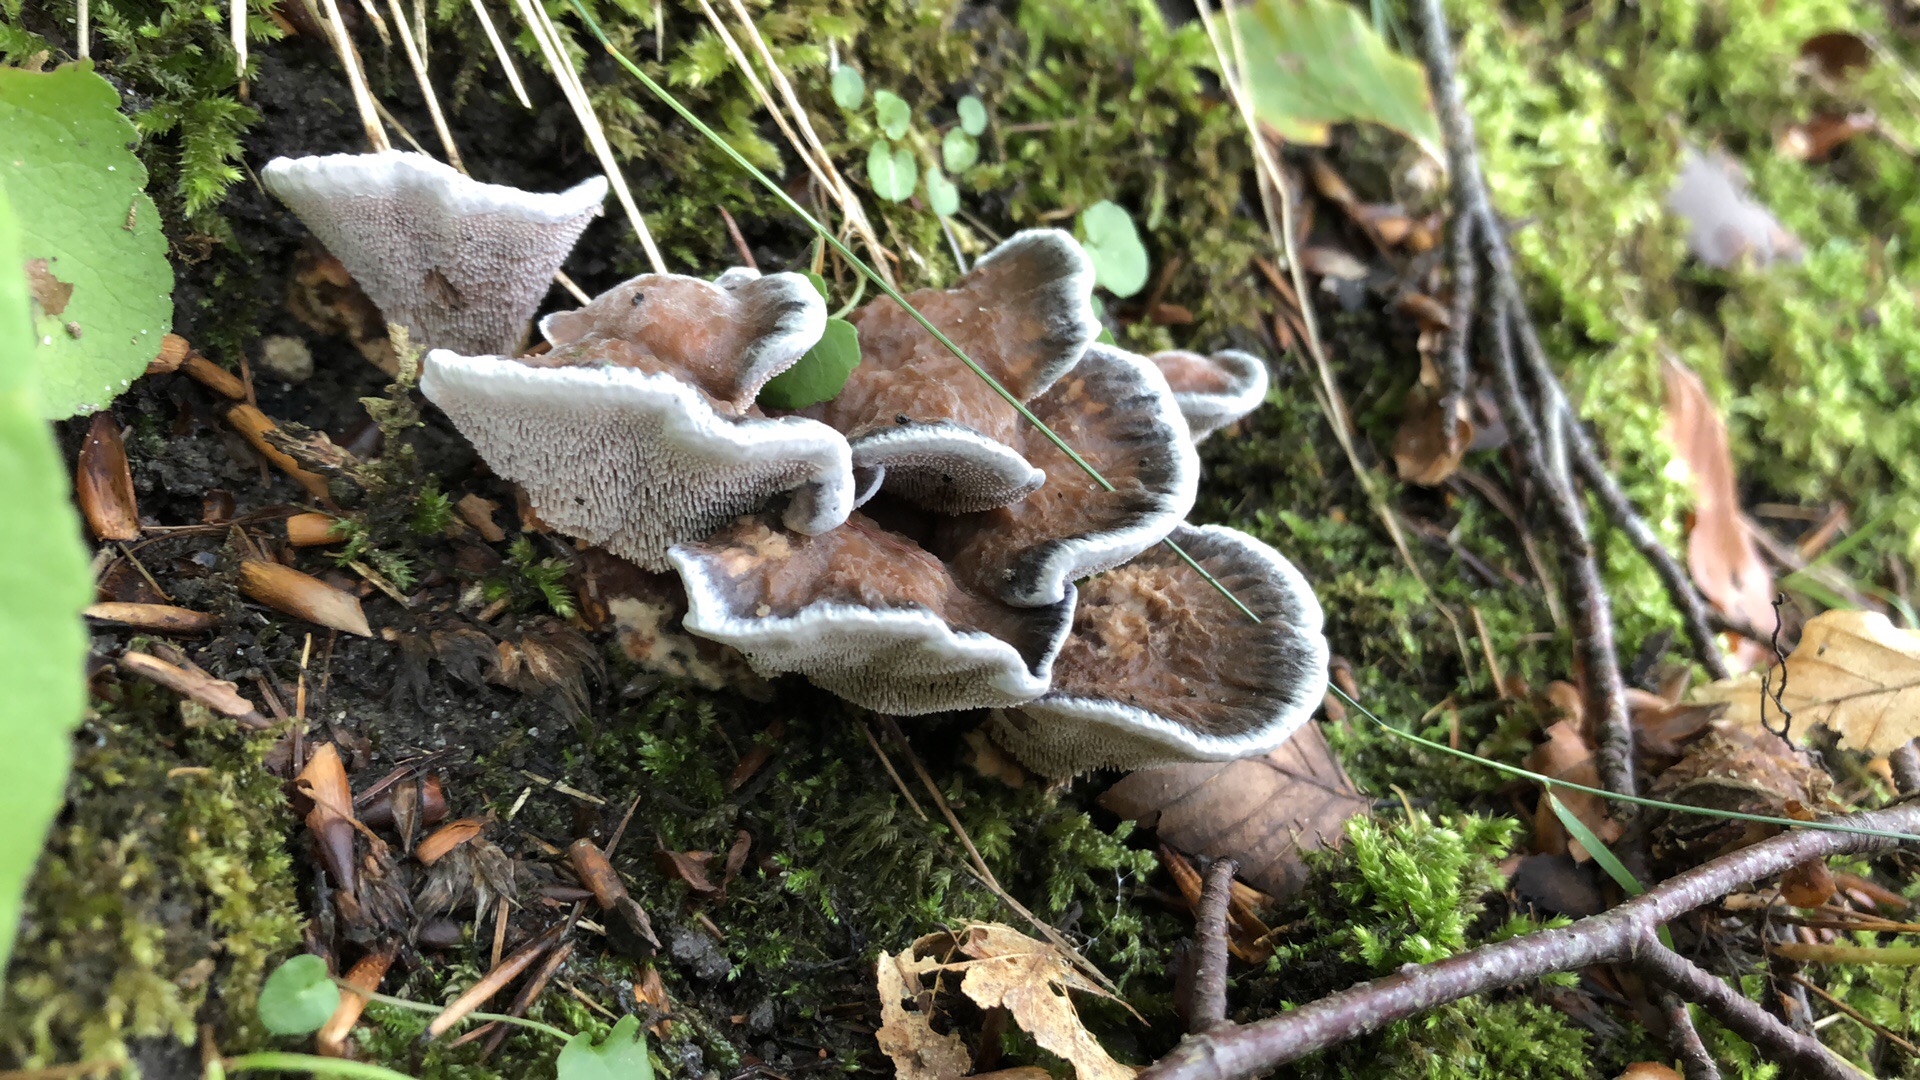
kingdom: Fungi
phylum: Basidiomycota
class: Agaricomycetes
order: Thelephorales
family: Bankeraceae
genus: Hydnellum
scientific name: Hydnellum caeruleum
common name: blålig korkpigsvamp
